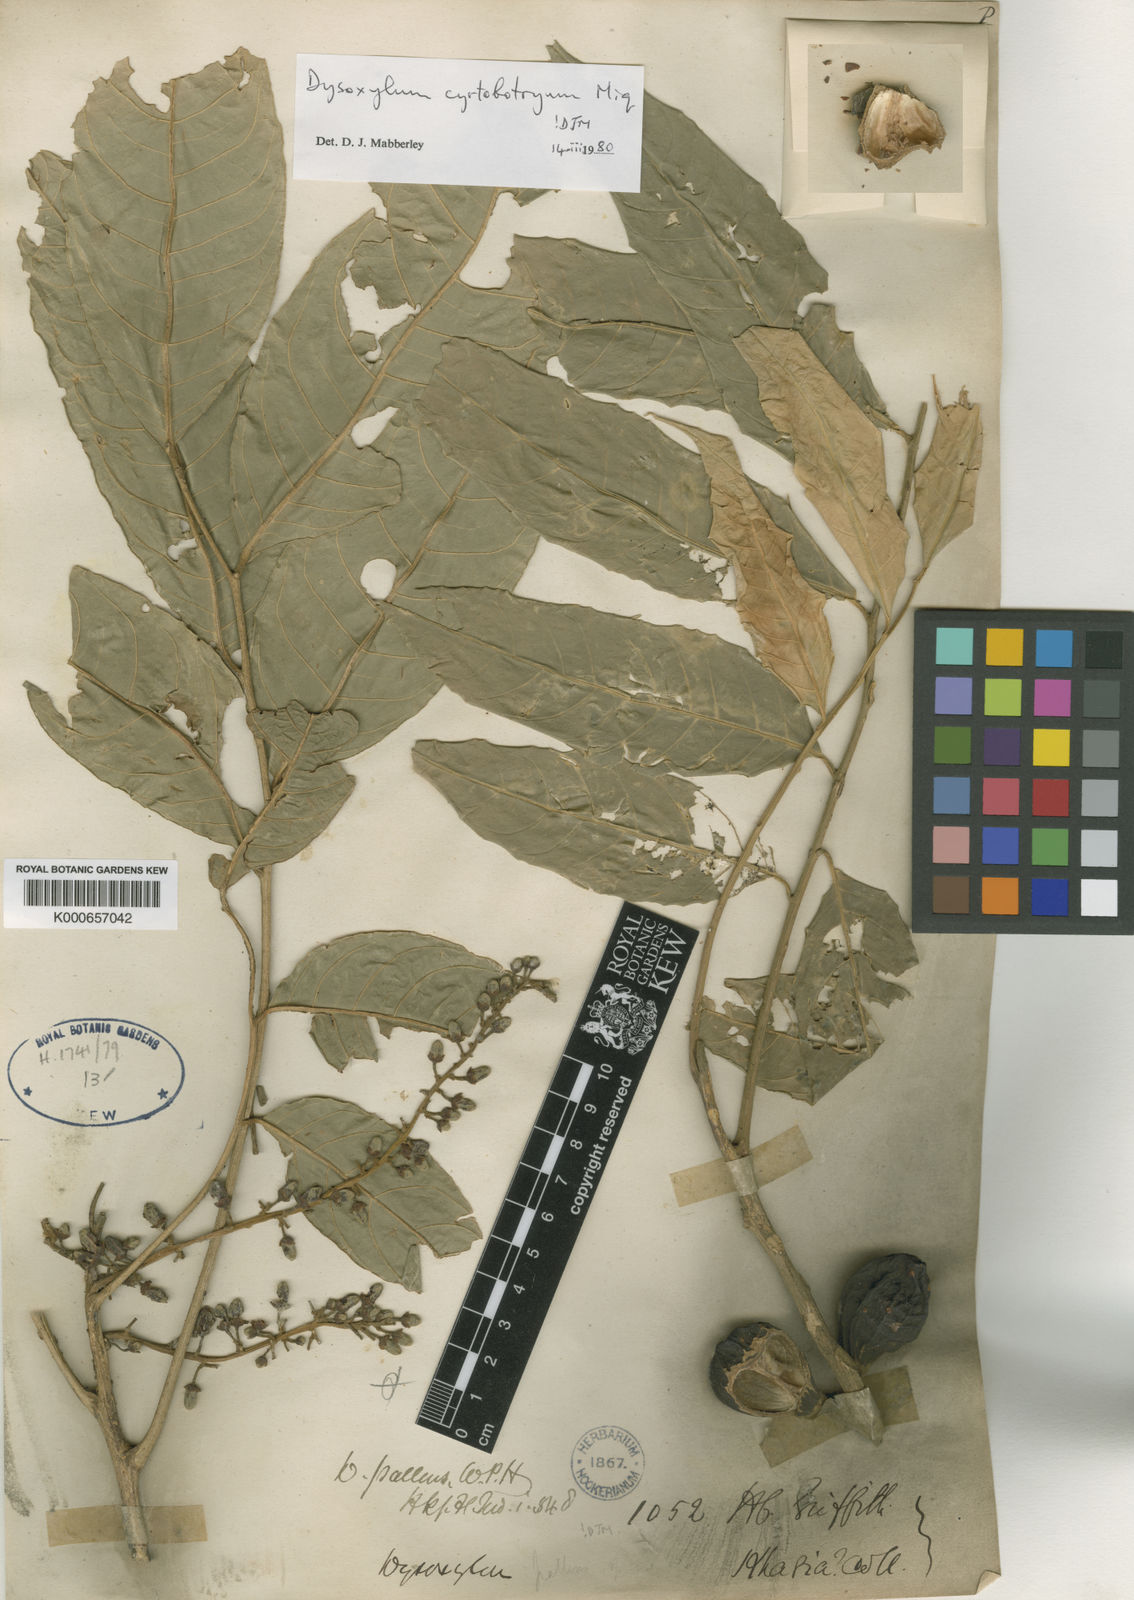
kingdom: Plantae
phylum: Tracheophyta
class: Magnoliopsida
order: Sapindales
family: Meliaceae
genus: Dysoxylum
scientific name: Dysoxylum cyrtobotryum
